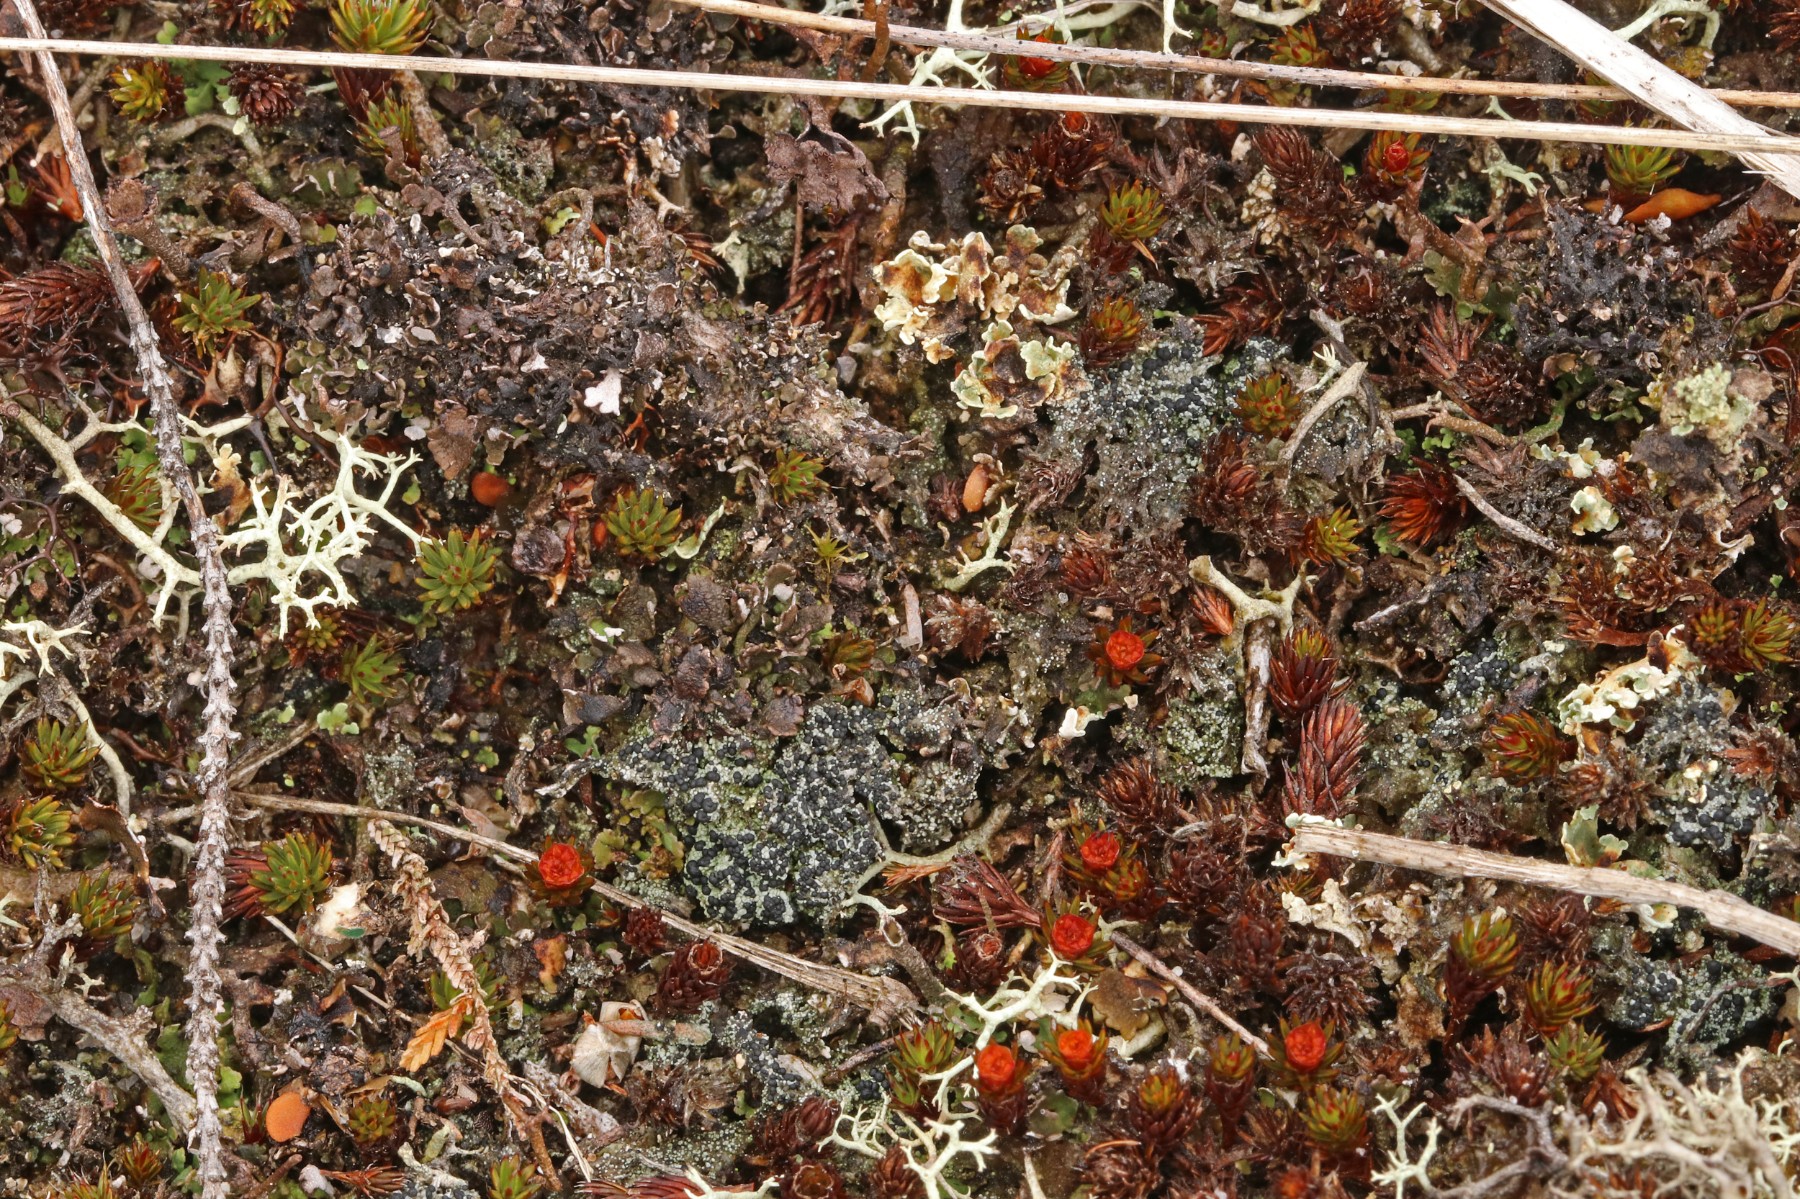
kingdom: Fungi
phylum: Ascomycota
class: Lecanoromycetes
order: Lecanorales
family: Byssolomataceae
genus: Micarea
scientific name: Micarea lignaria
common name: tørve-knaplav
